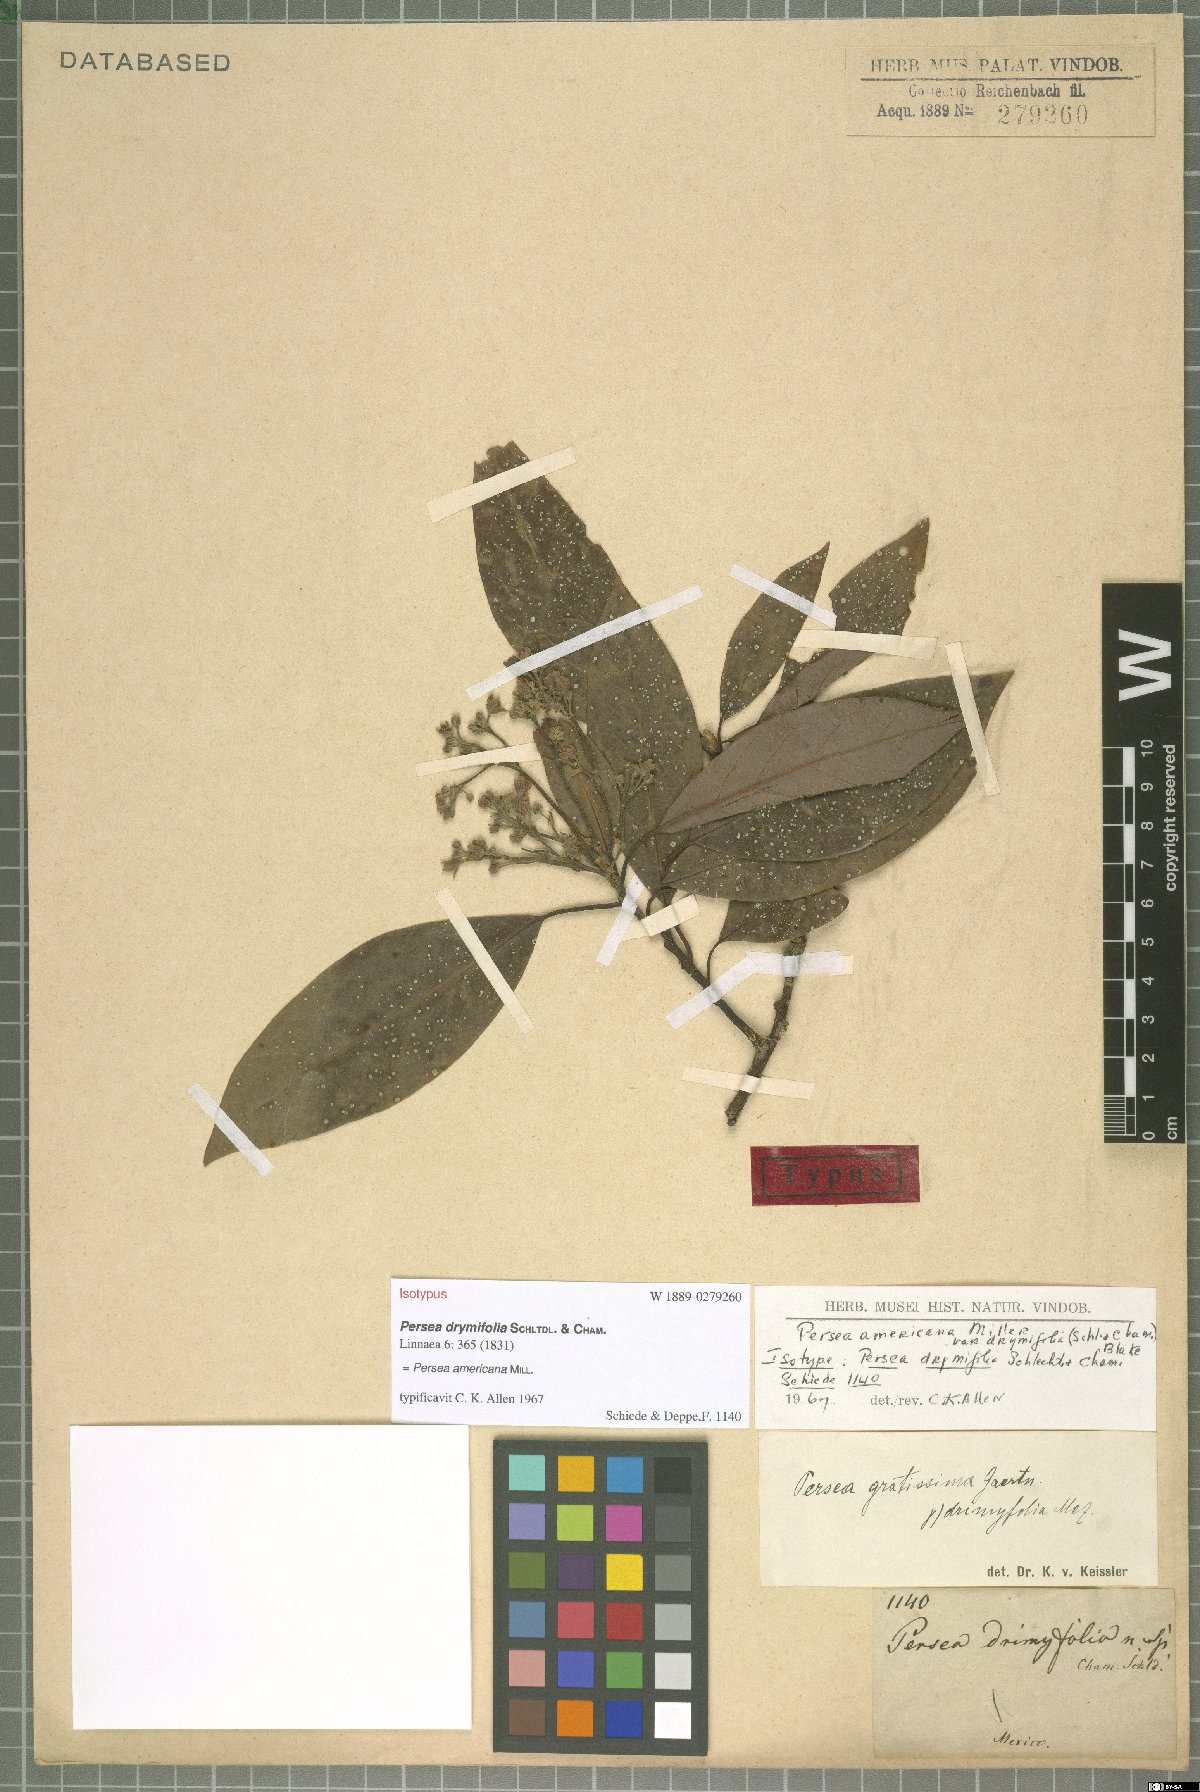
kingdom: Plantae
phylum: Tracheophyta
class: Magnoliopsida
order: Laurales
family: Lauraceae
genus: Persea
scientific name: Persea americana
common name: Avocado
